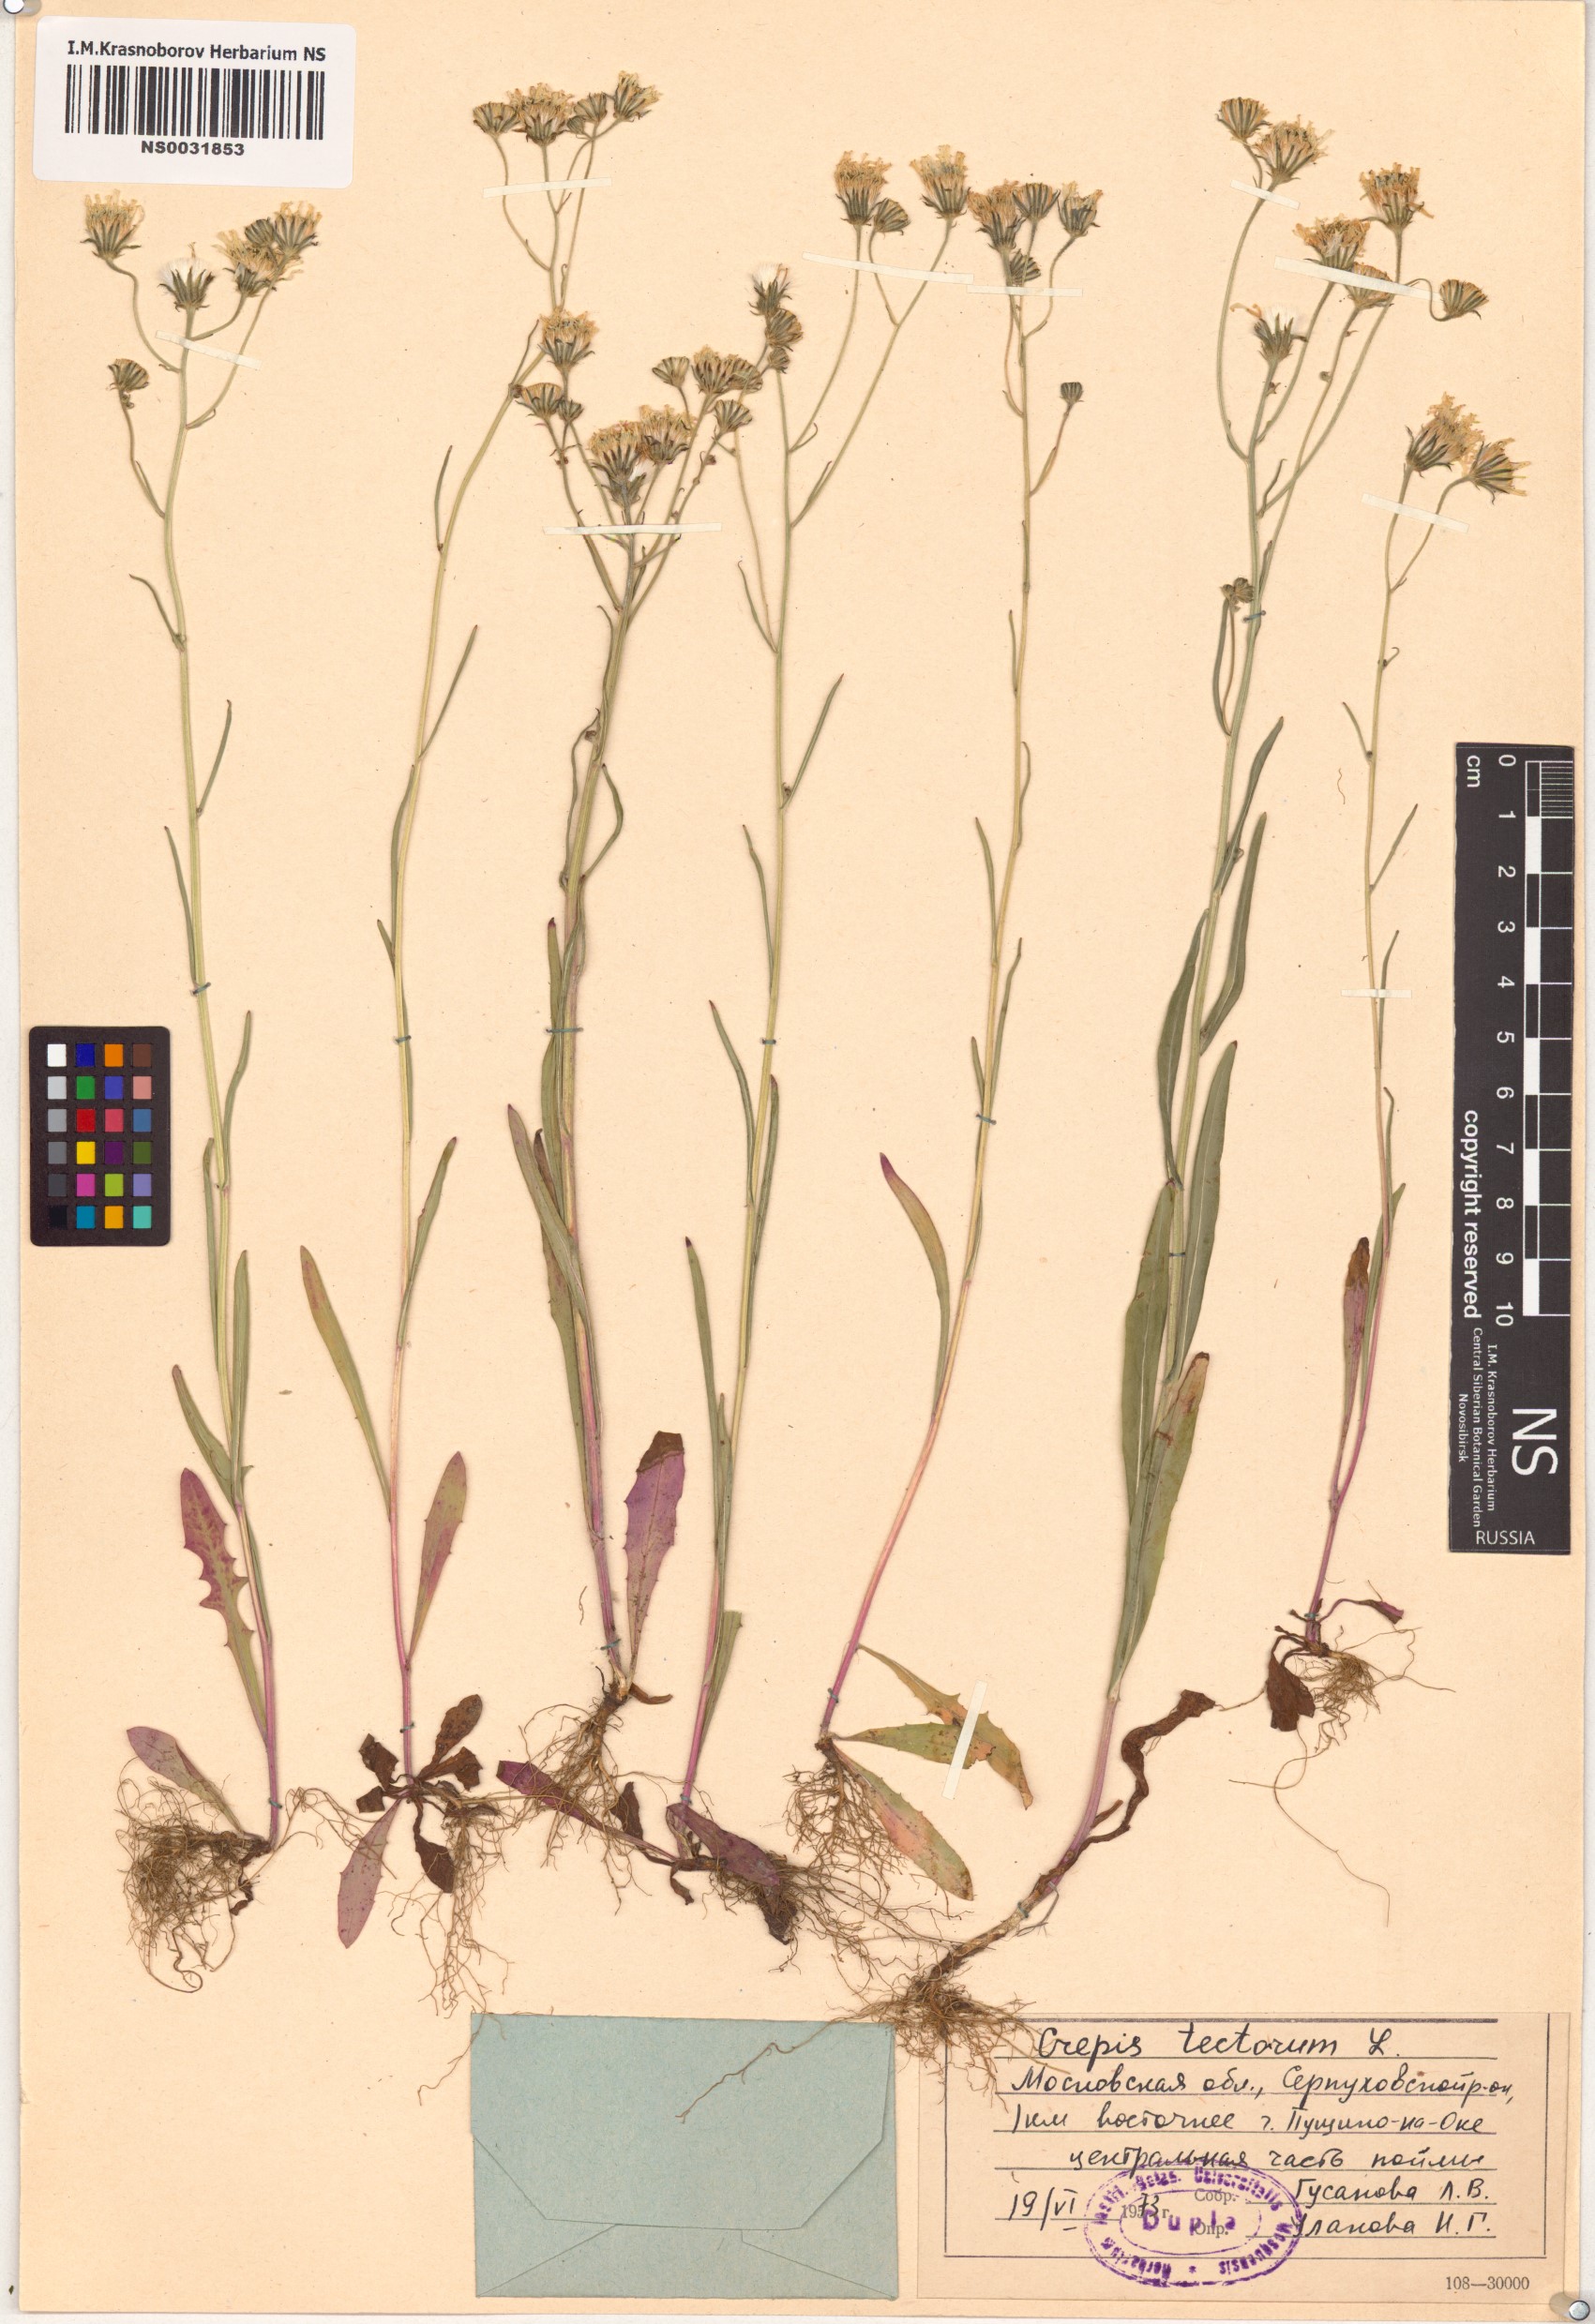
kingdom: Plantae
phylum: Tracheophyta
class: Magnoliopsida
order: Asterales
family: Asteraceae
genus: Crepis
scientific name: Crepis tectorum
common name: Narrow-leaved hawk's-beard
